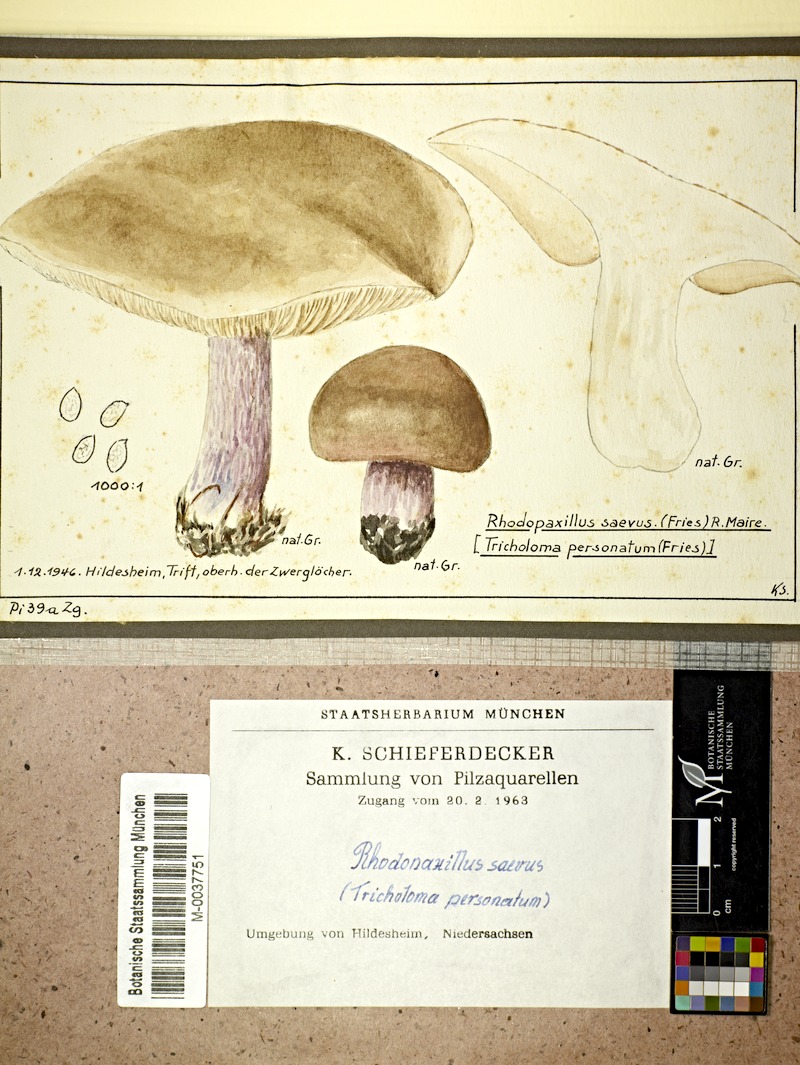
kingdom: Fungi
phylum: Basidiomycota
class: Agaricomycetes
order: Agaricales
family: Tricholomataceae
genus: Lepista
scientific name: Lepista personata
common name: Field blewit
